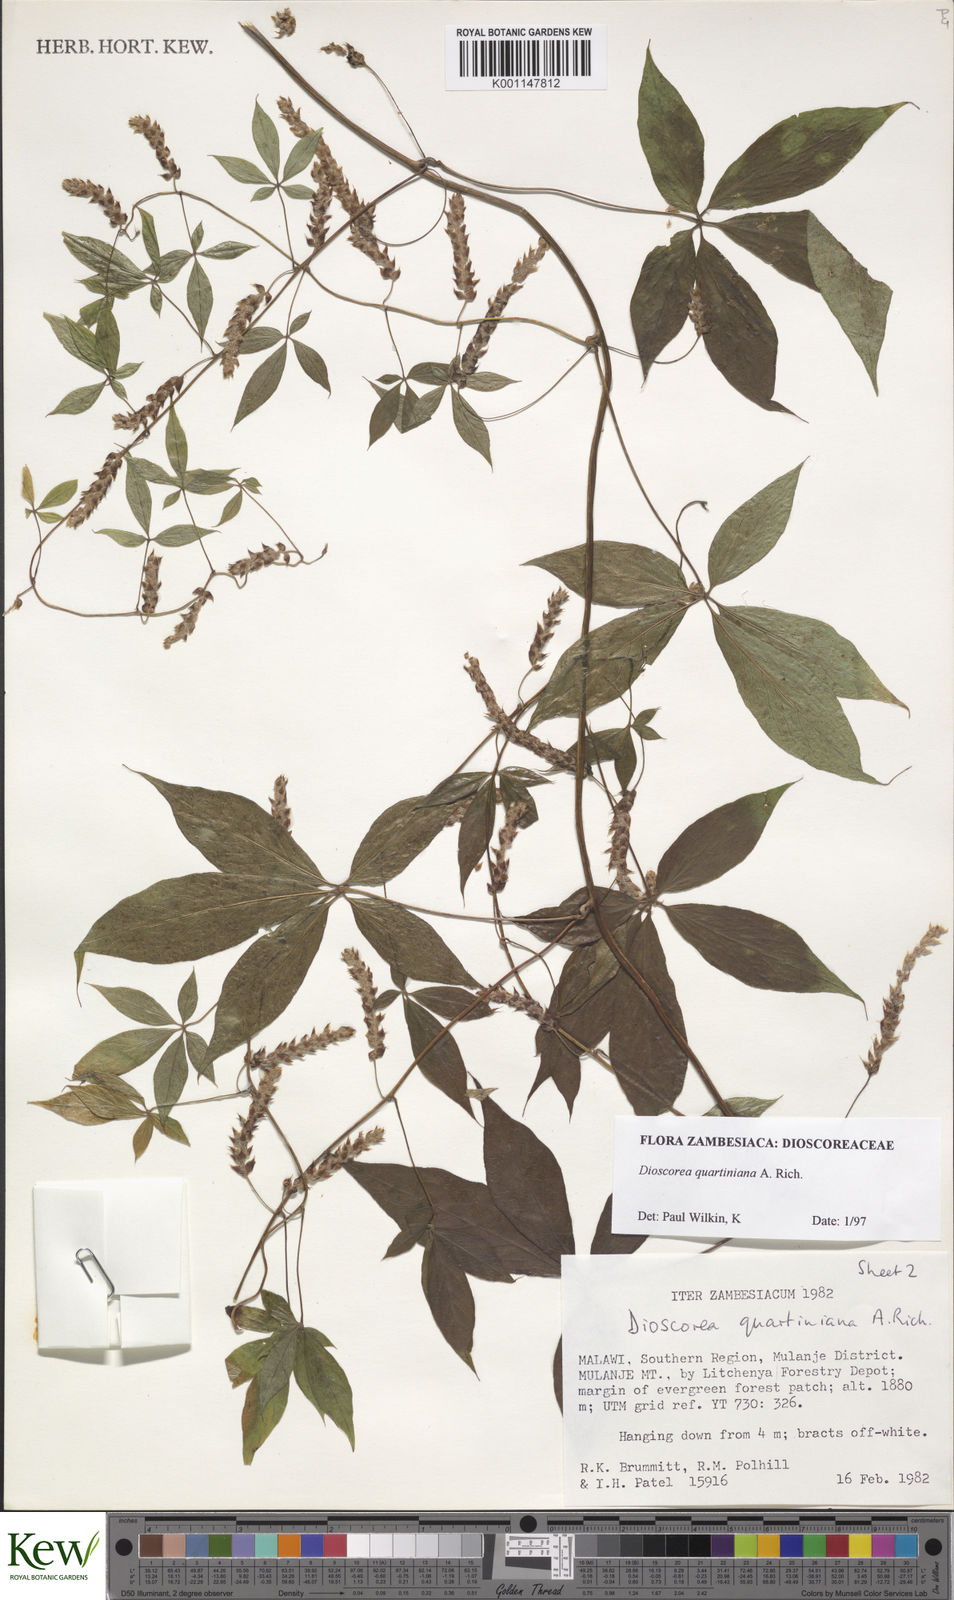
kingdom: Plantae
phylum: Tracheophyta
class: Liliopsida
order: Dioscoreales
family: Dioscoreaceae
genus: Dioscorea
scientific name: Dioscorea quartiniana
